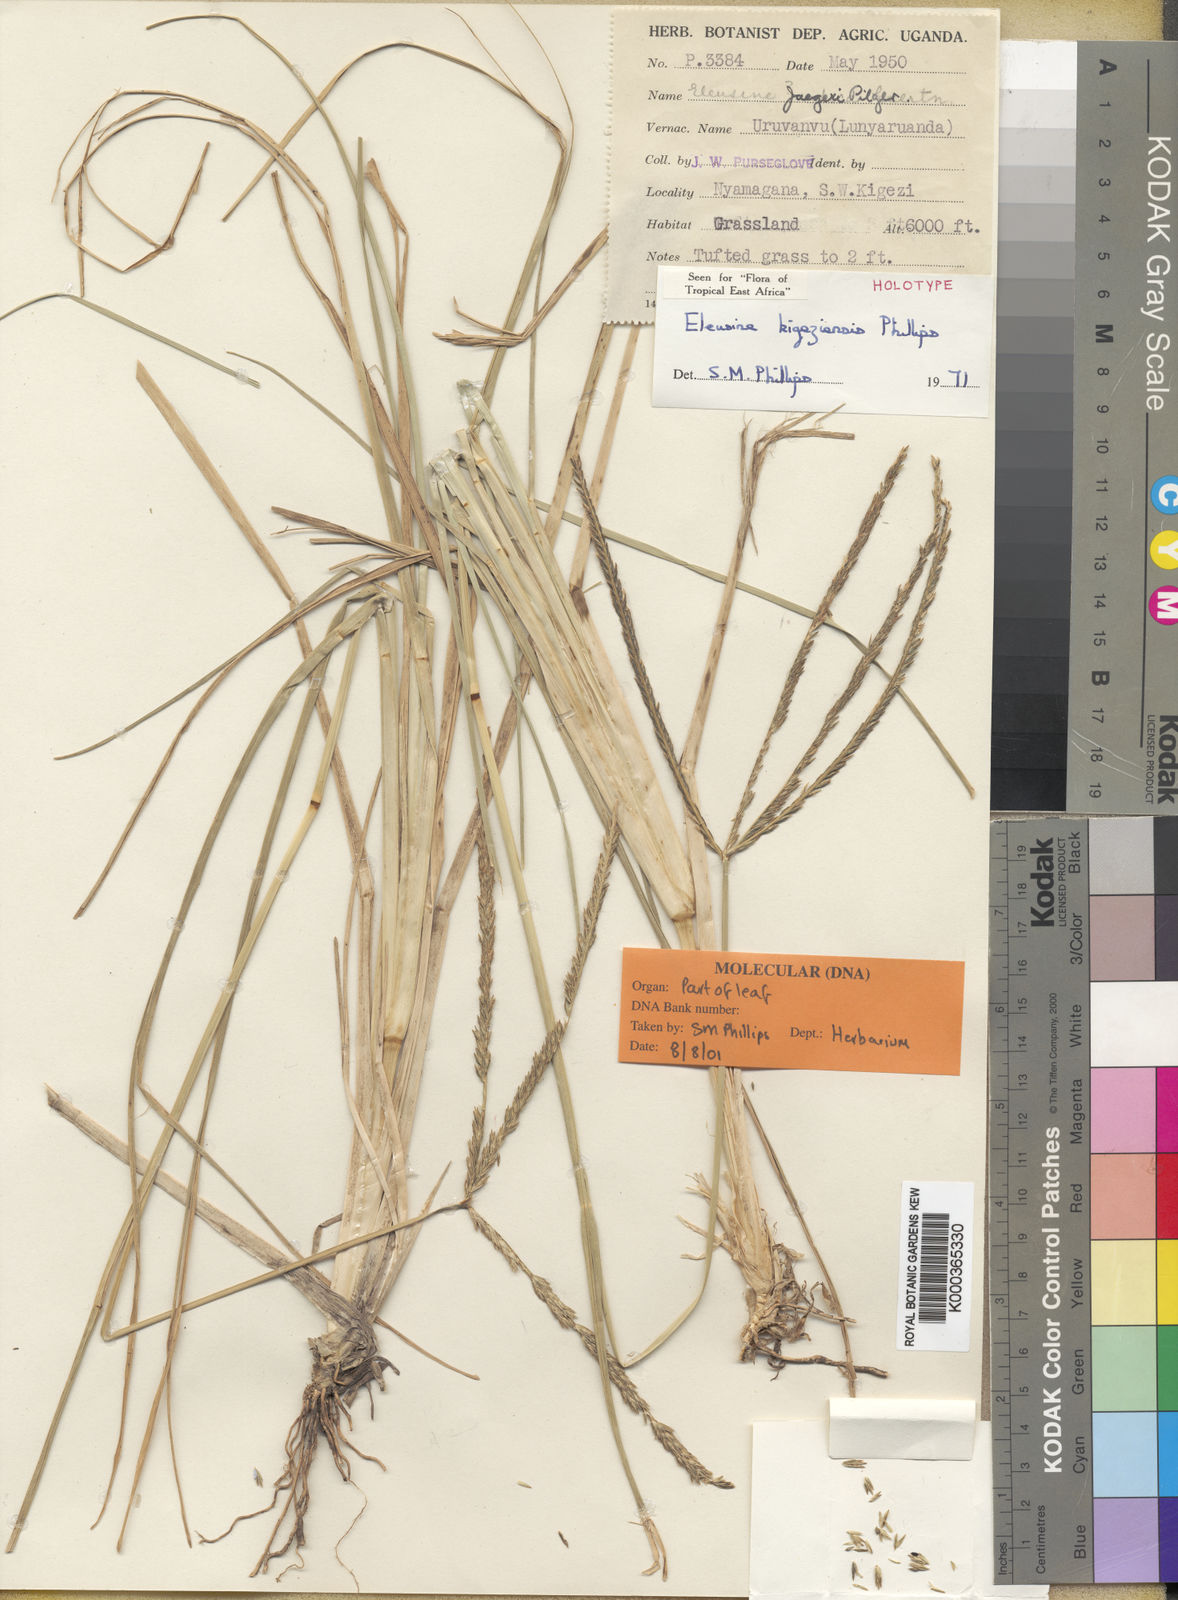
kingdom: Plantae
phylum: Tracheophyta
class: Liliopsida
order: Poales
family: Poaceae
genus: Eleusine
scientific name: Eleusine kigeziensis
